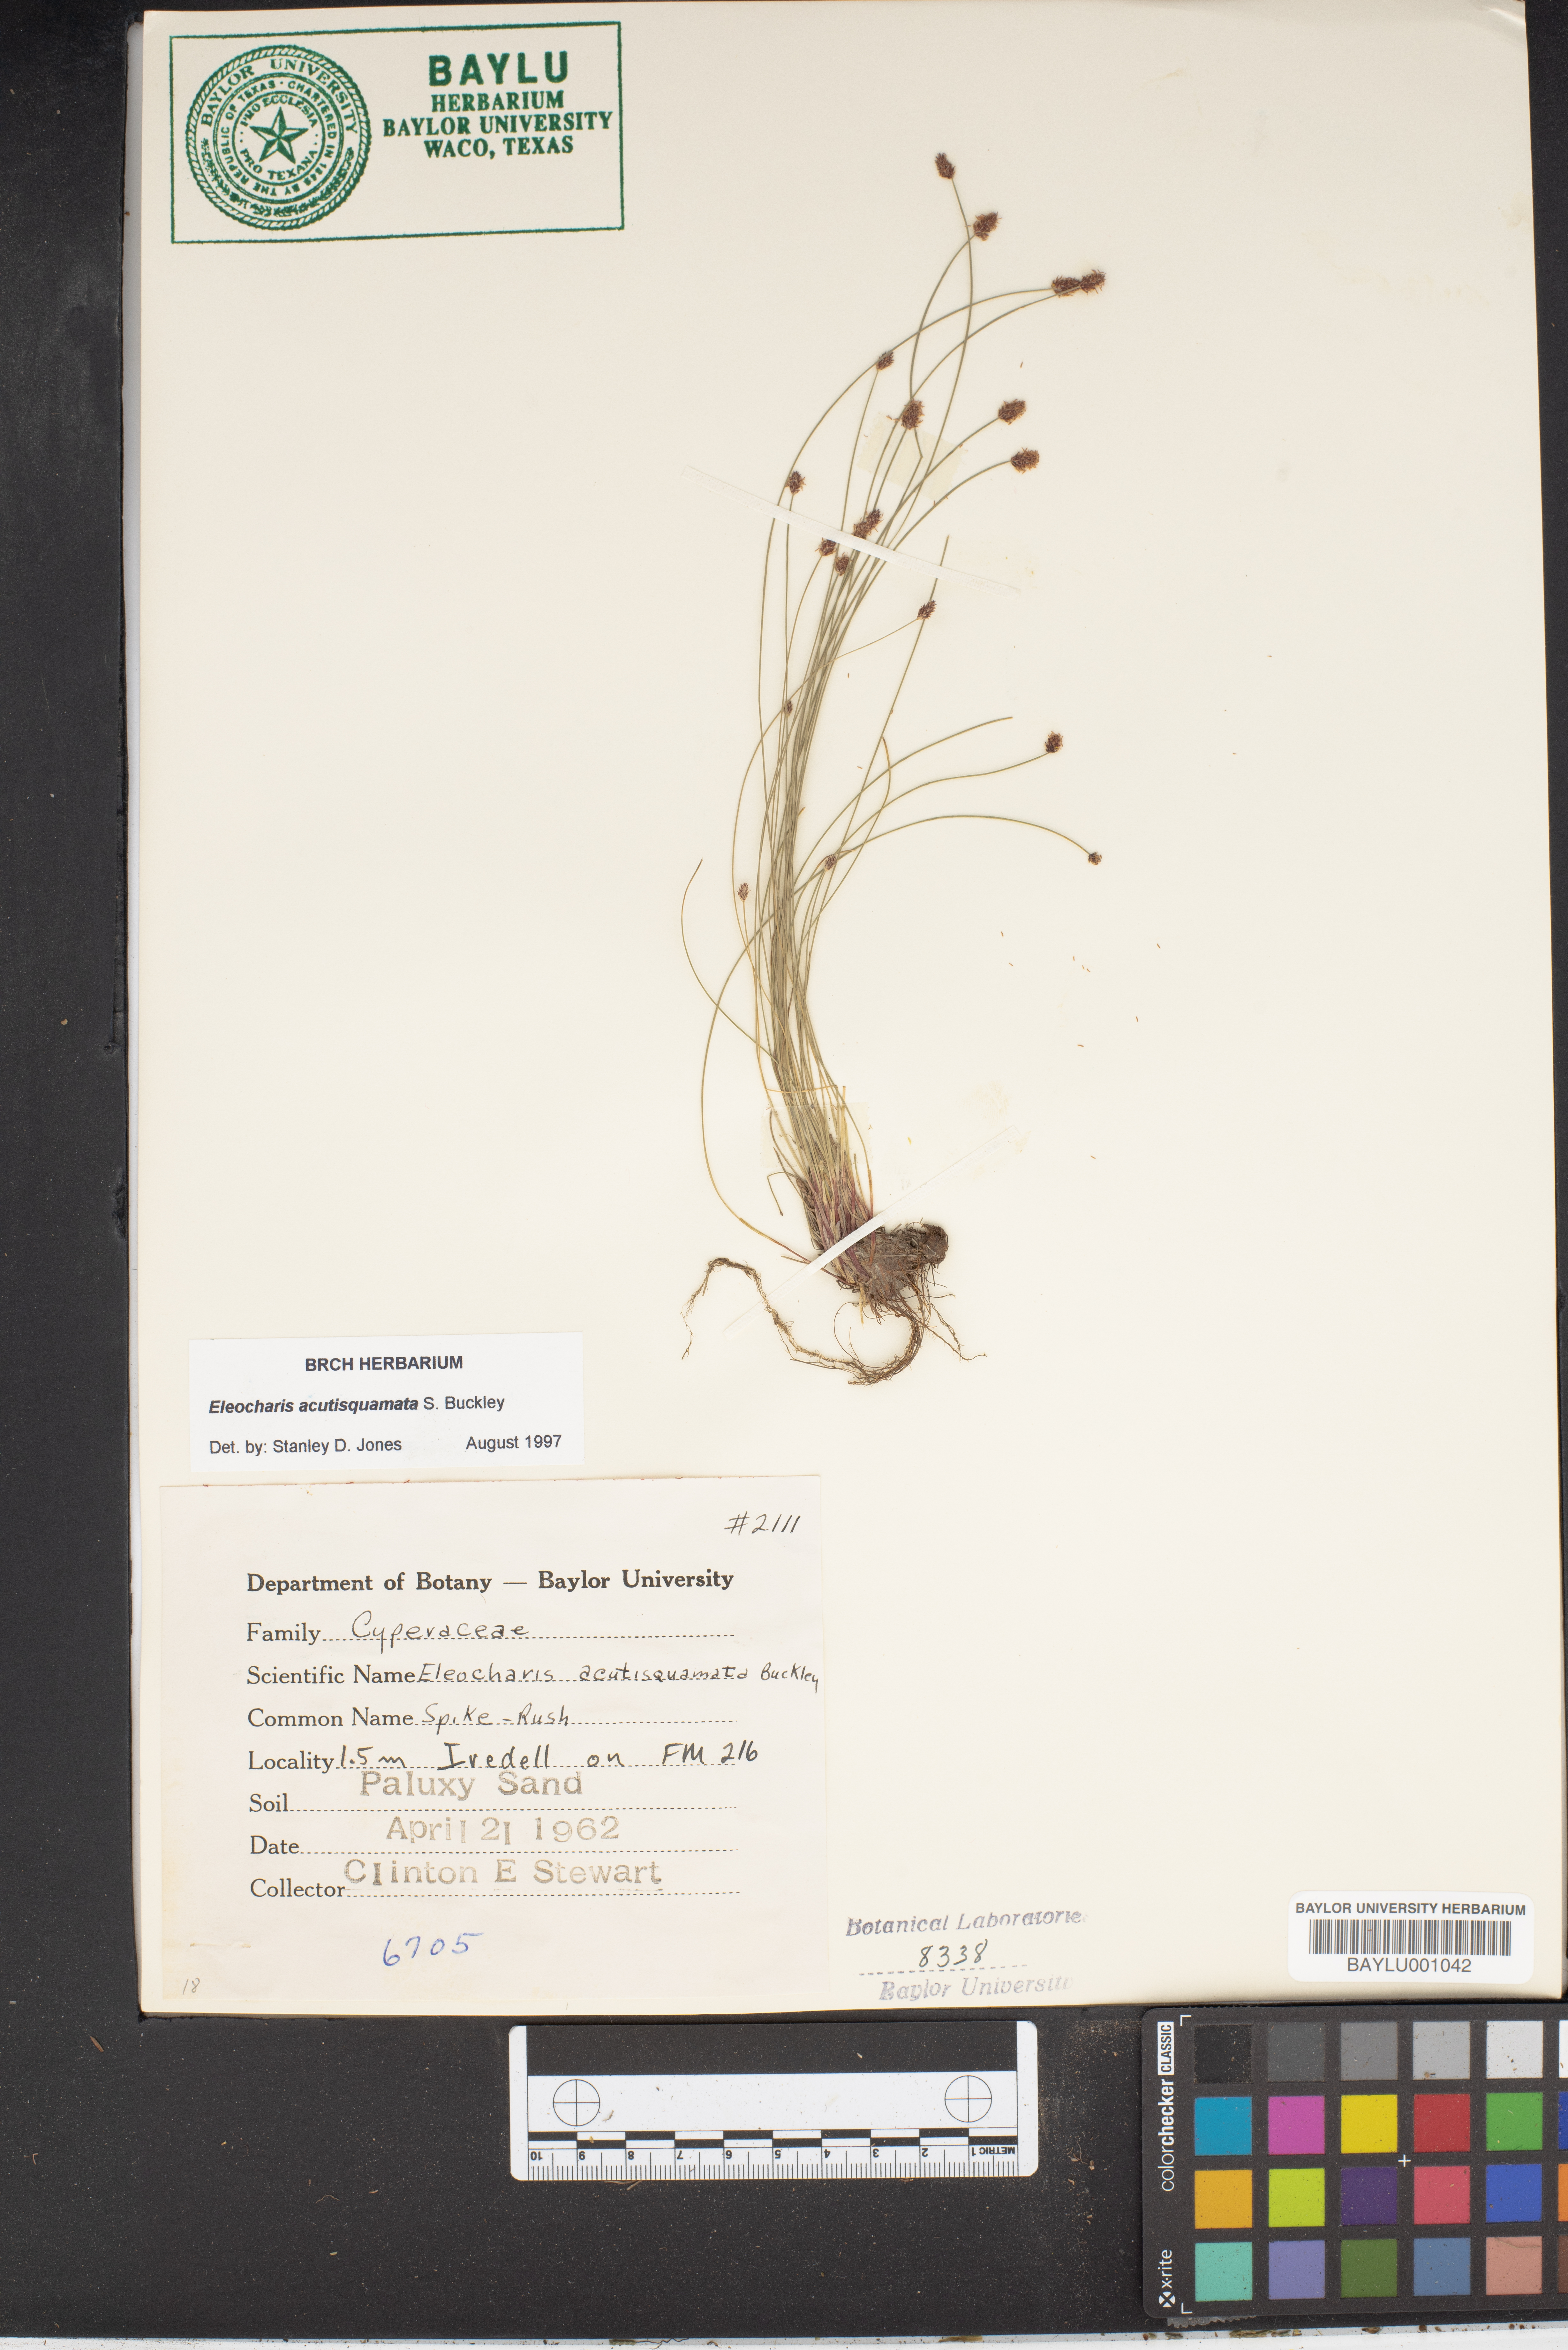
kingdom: Plantae
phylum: Tracheophyta
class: Liliopsida
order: Poales
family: Cyperaceae
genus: Eleocharis
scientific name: Eleocharis compressa
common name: Flat-stem spike-rush
